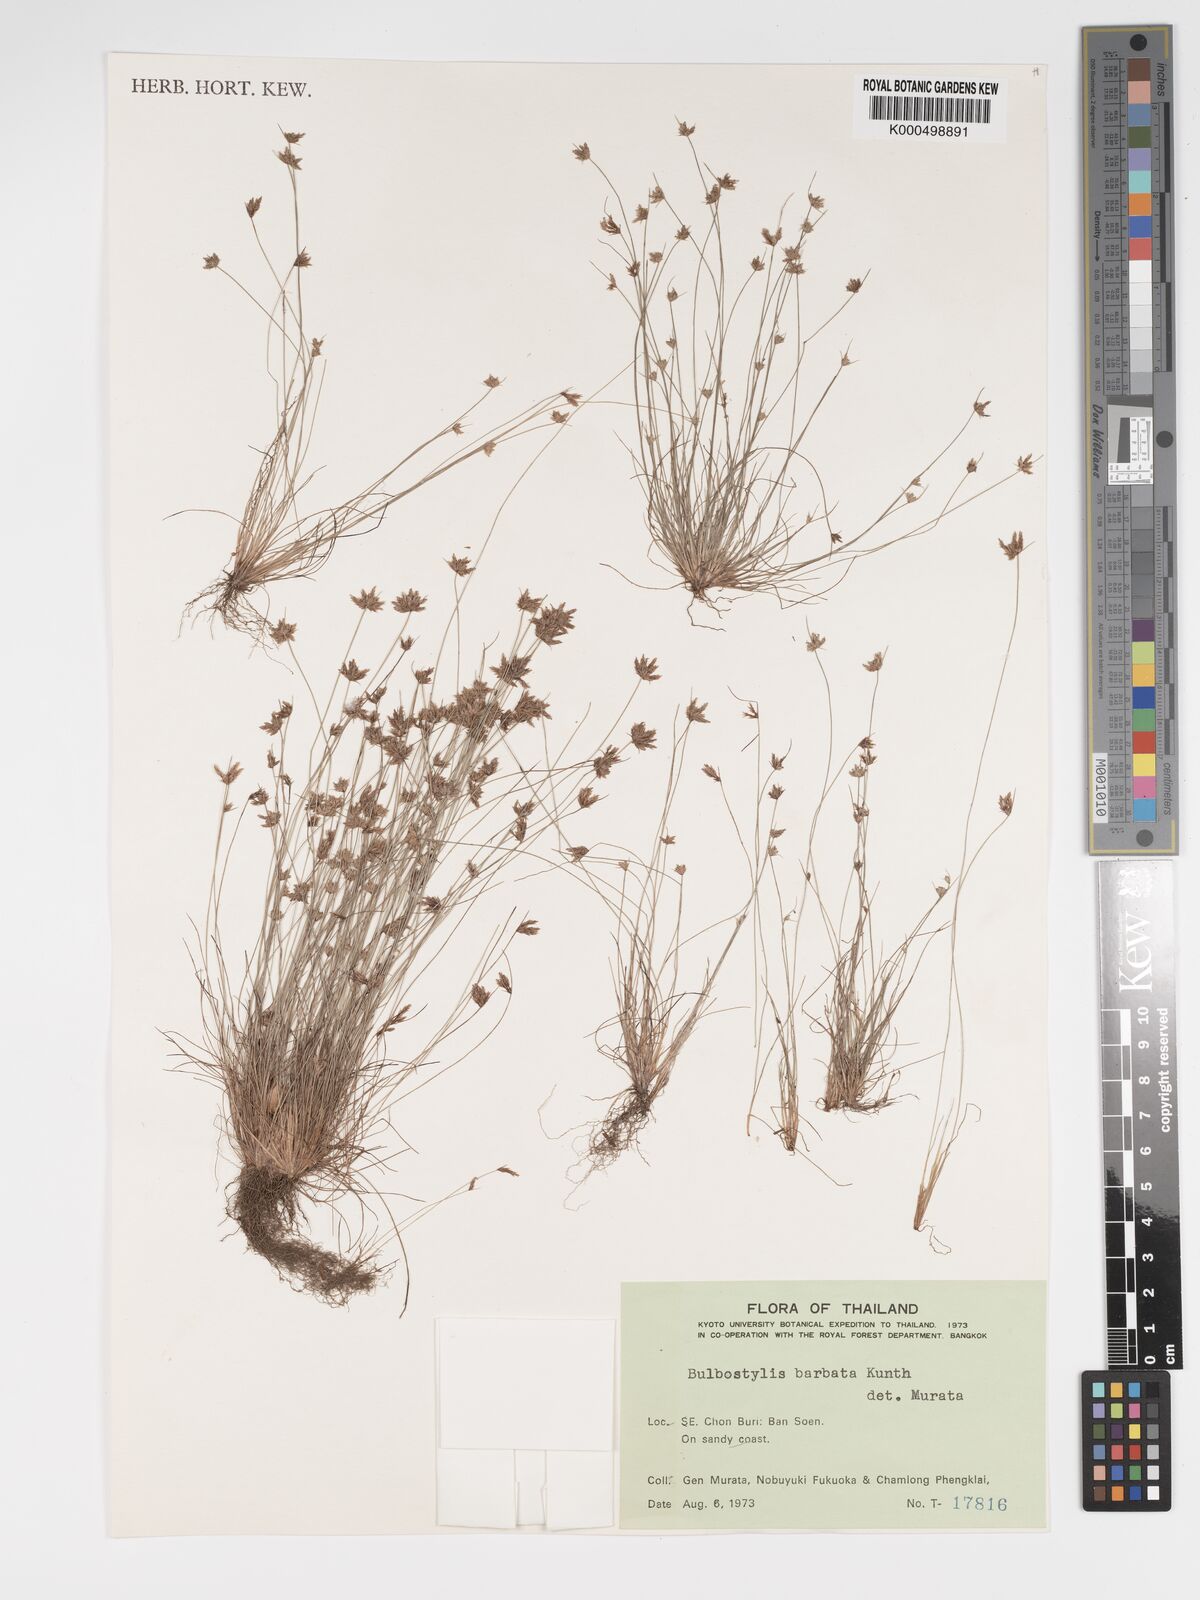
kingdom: Plantae
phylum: Tracheophyta
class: Liliopsida
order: Poales
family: Cyperaceae
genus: Bulbostylis
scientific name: Bulbostylis barbata
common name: Watergrass
